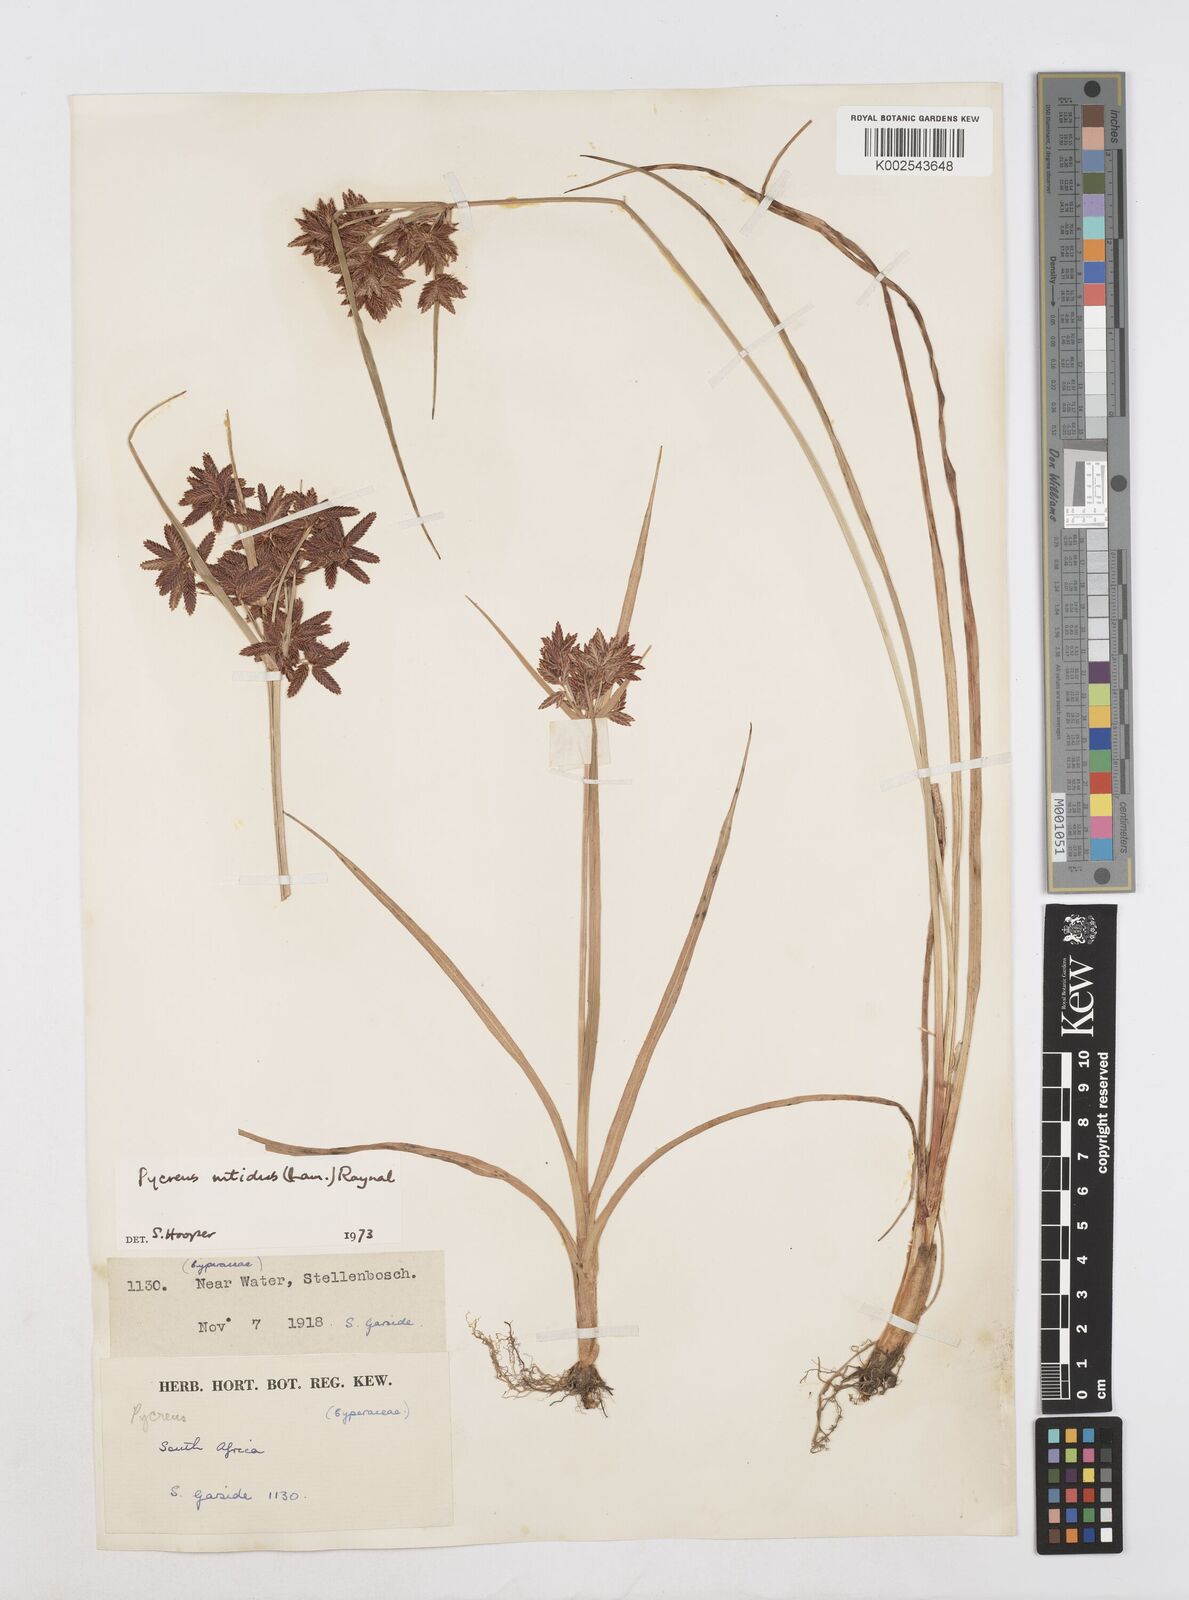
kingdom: Plantae
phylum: Tracheophyta
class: Liliopsida
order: Poales
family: Cyperaceae
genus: Cyperus
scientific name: Cyperus nitidus
